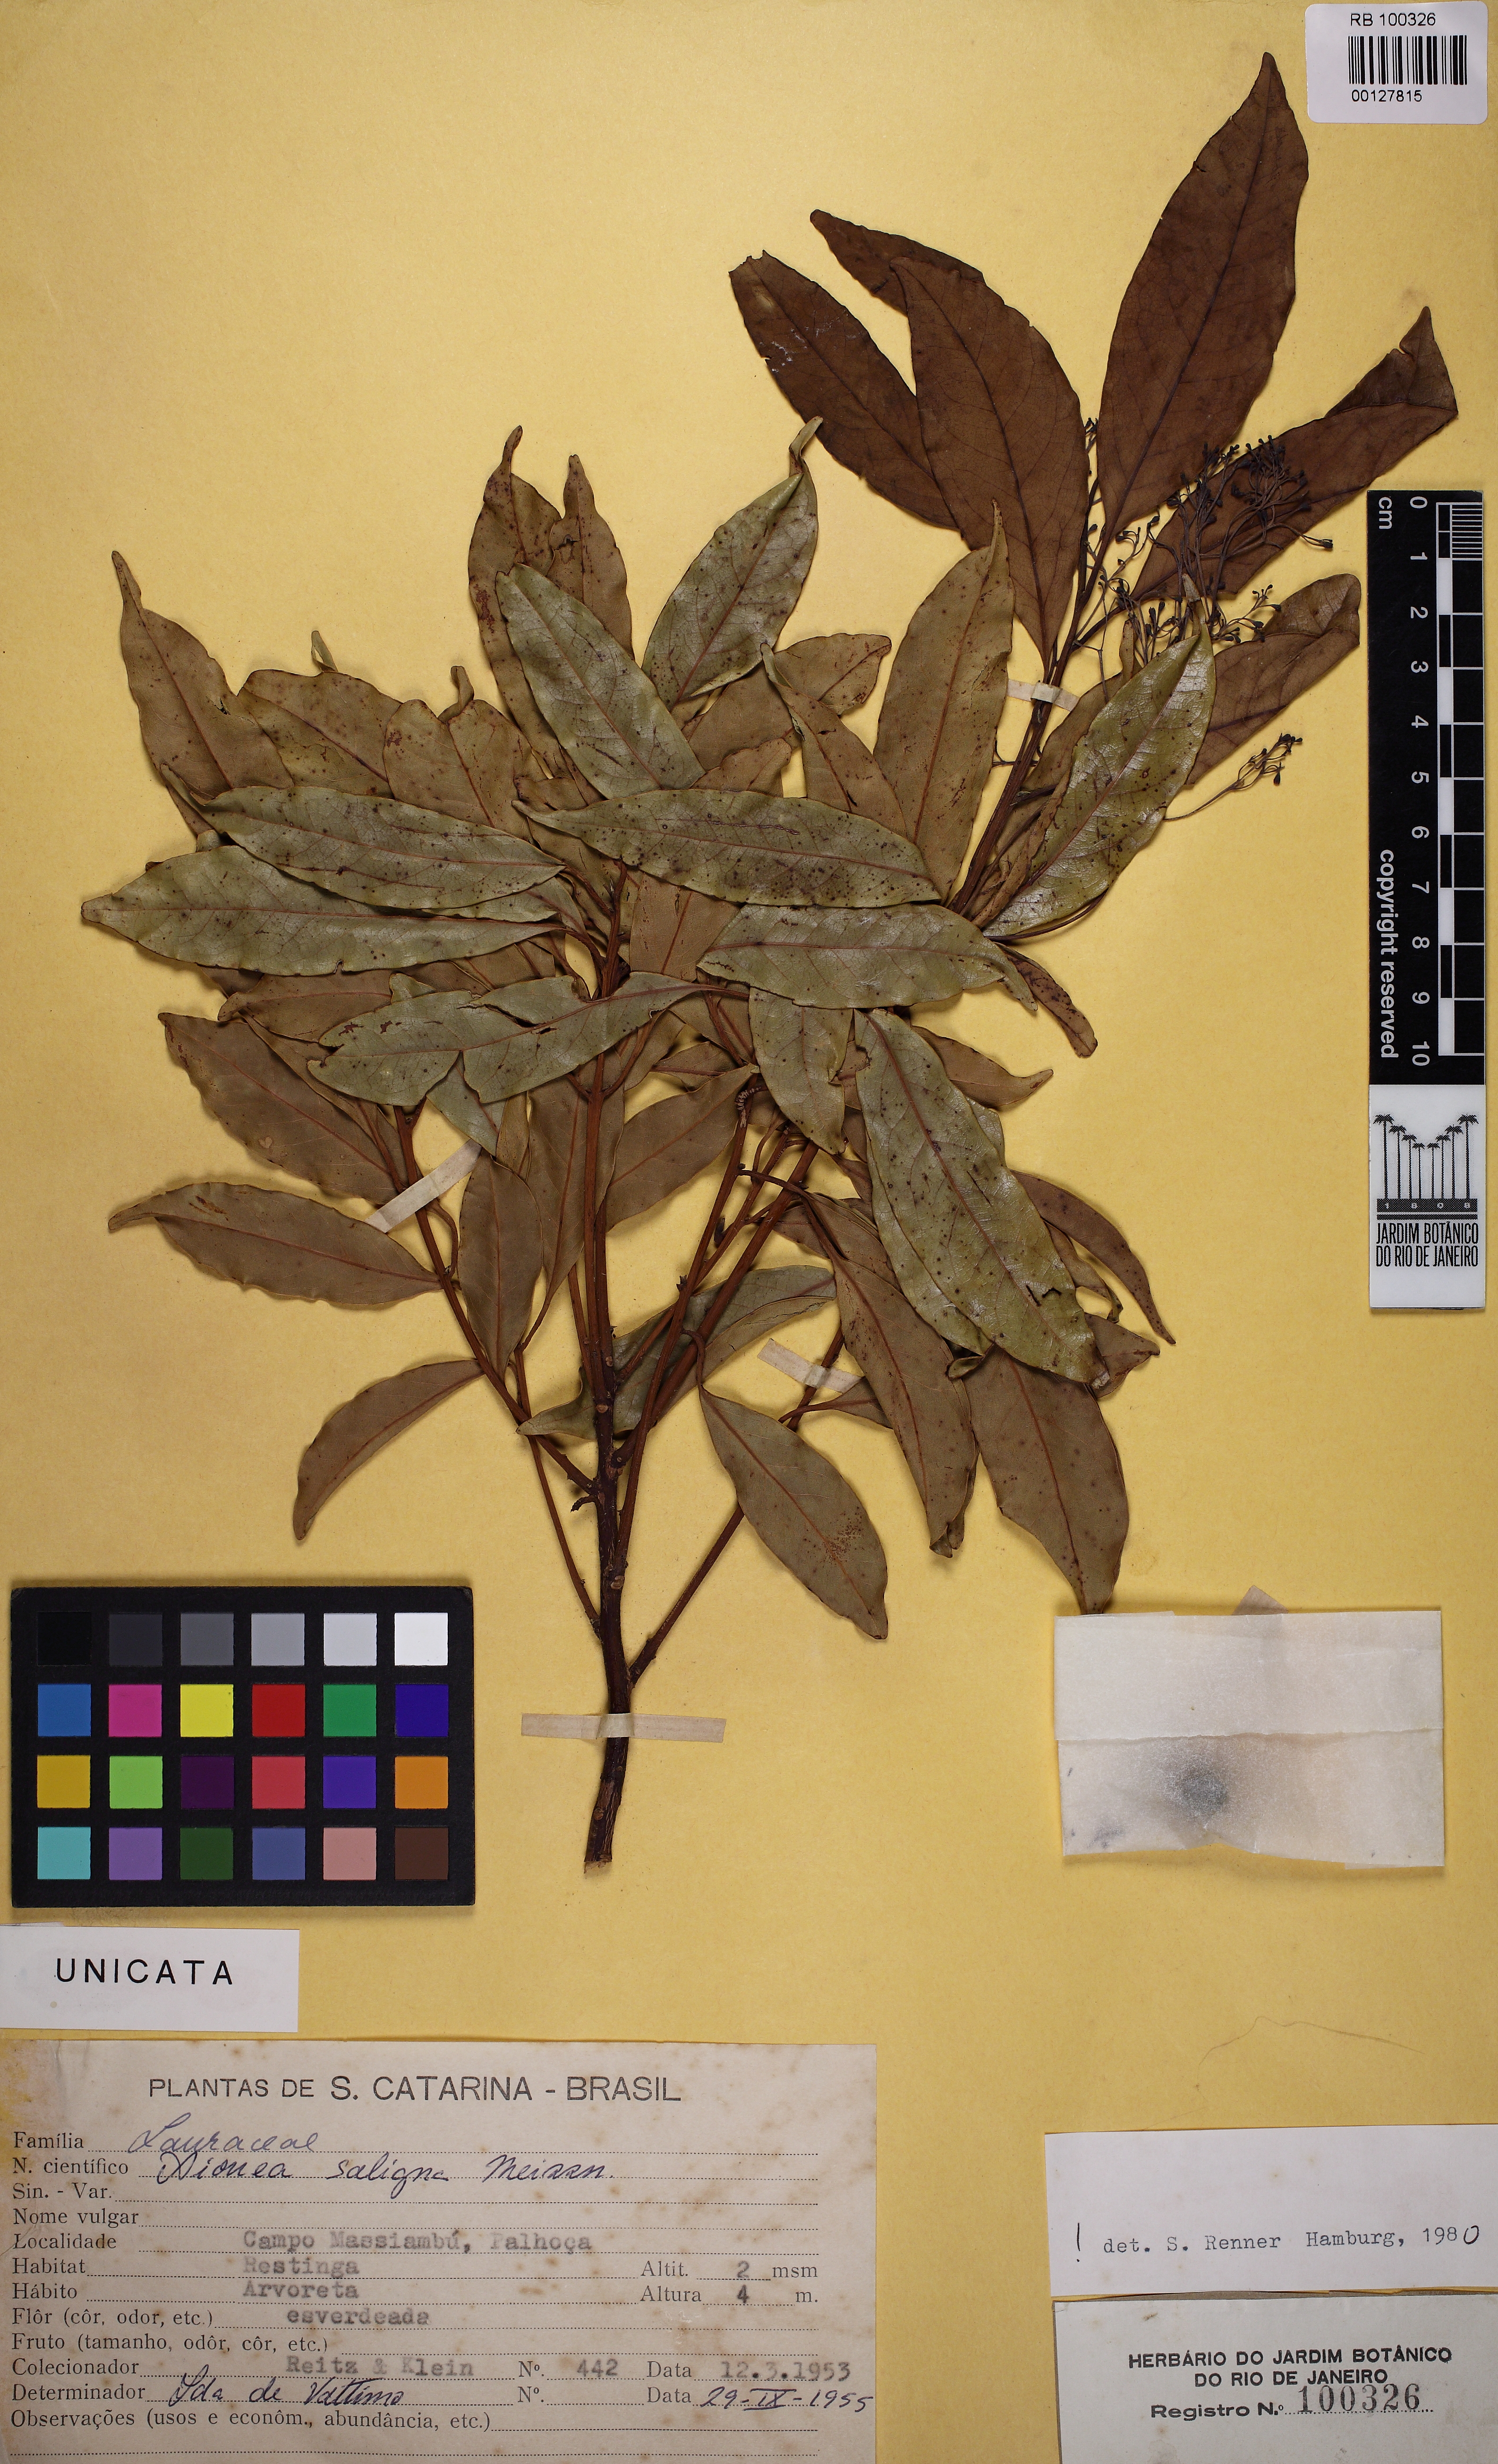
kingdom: Plantae
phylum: Tracheophyta
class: Magnoliopsida
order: Laurales
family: Lauraceae
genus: Aiouea
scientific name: Aiouea saligna
